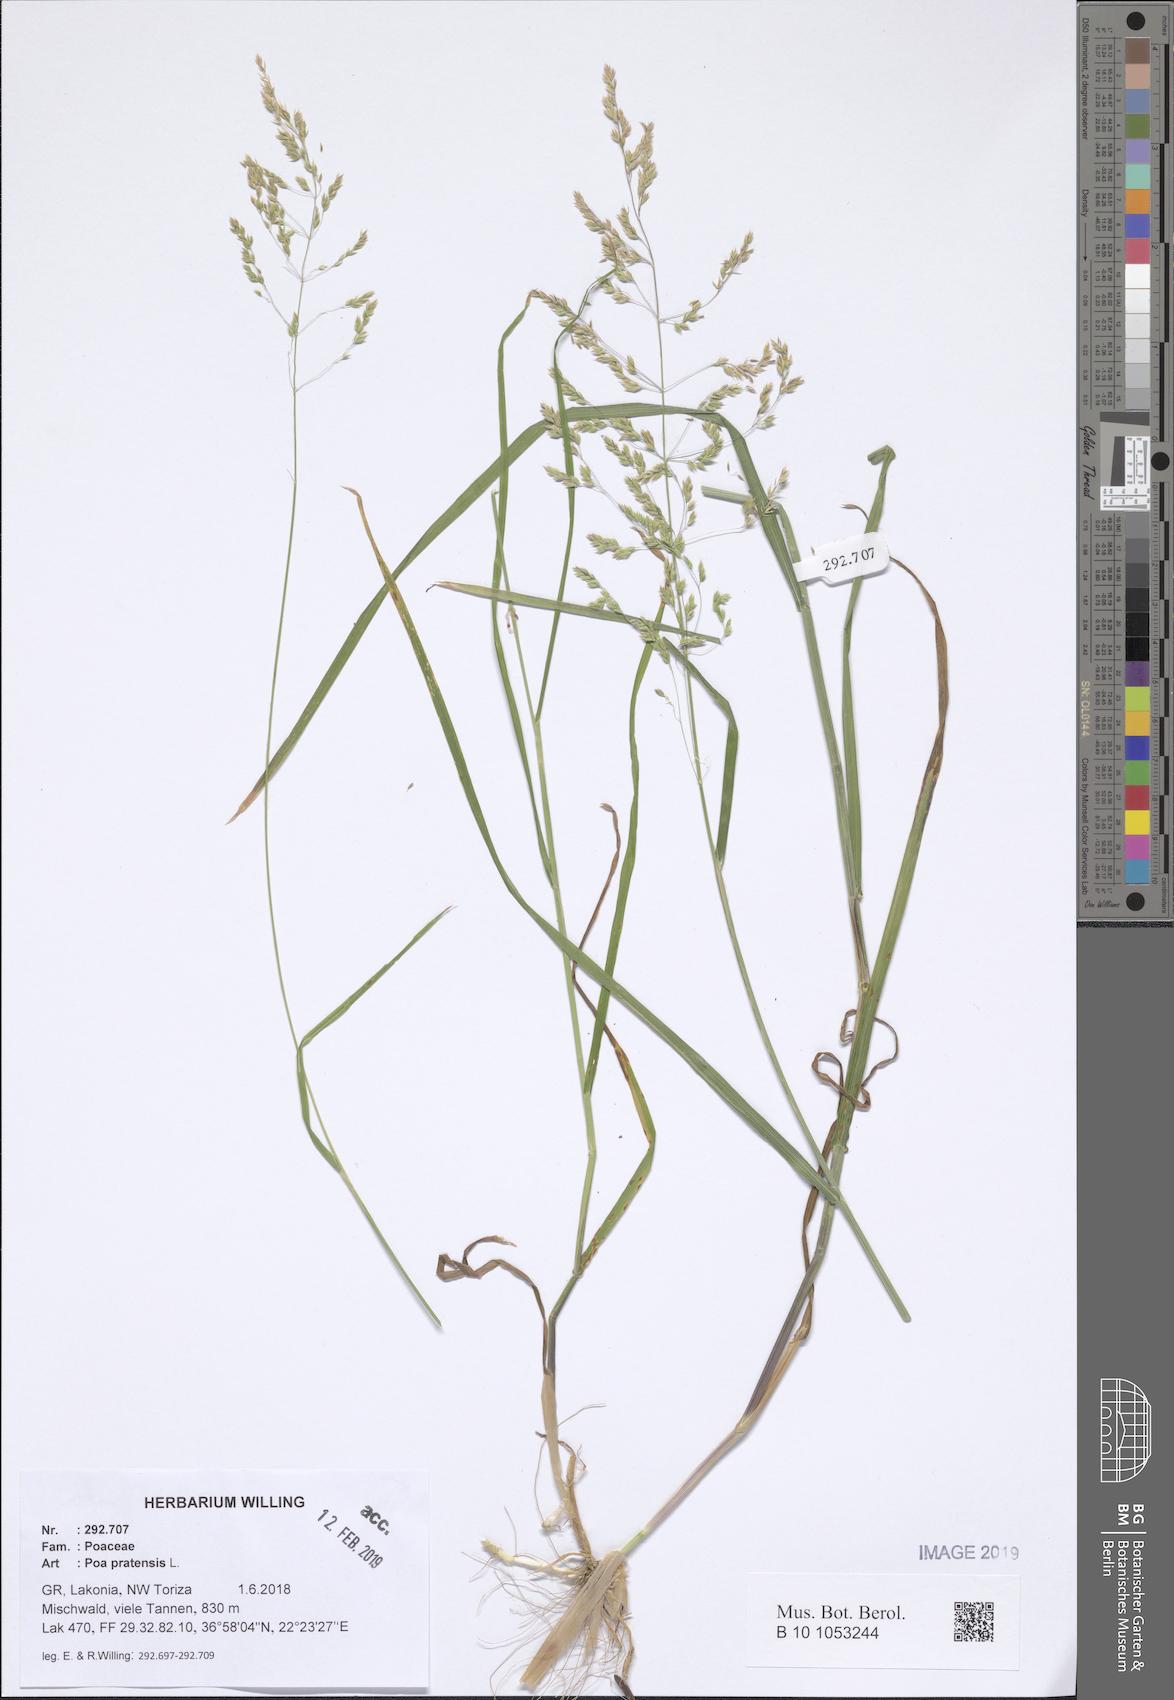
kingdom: Plantae
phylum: Tracheophyta
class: Liliopsida
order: Poales
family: Poaceae
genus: Poa
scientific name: Poa pratensis
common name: Kentucky bluegrass
